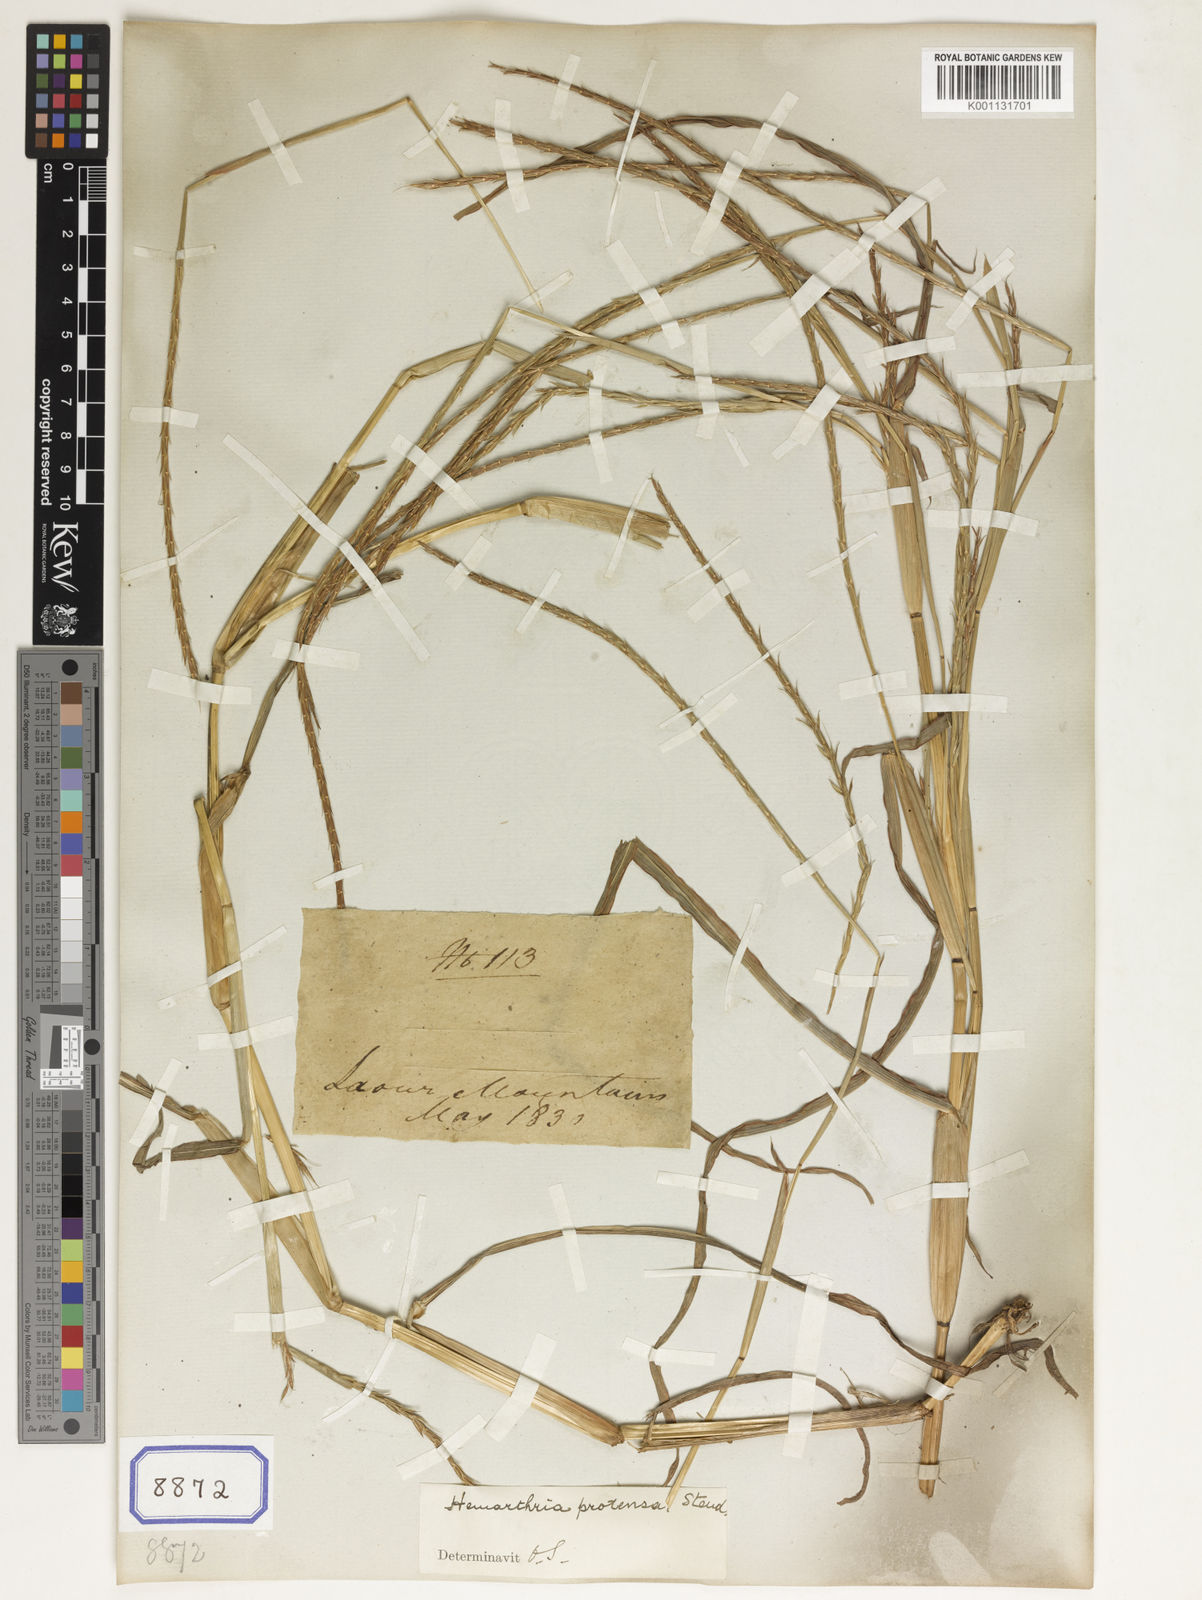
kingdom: Plantae
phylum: Tracheophyta
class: Liliopsida
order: Poales
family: Poaceae
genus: Hemarthria
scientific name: Hemarthria
